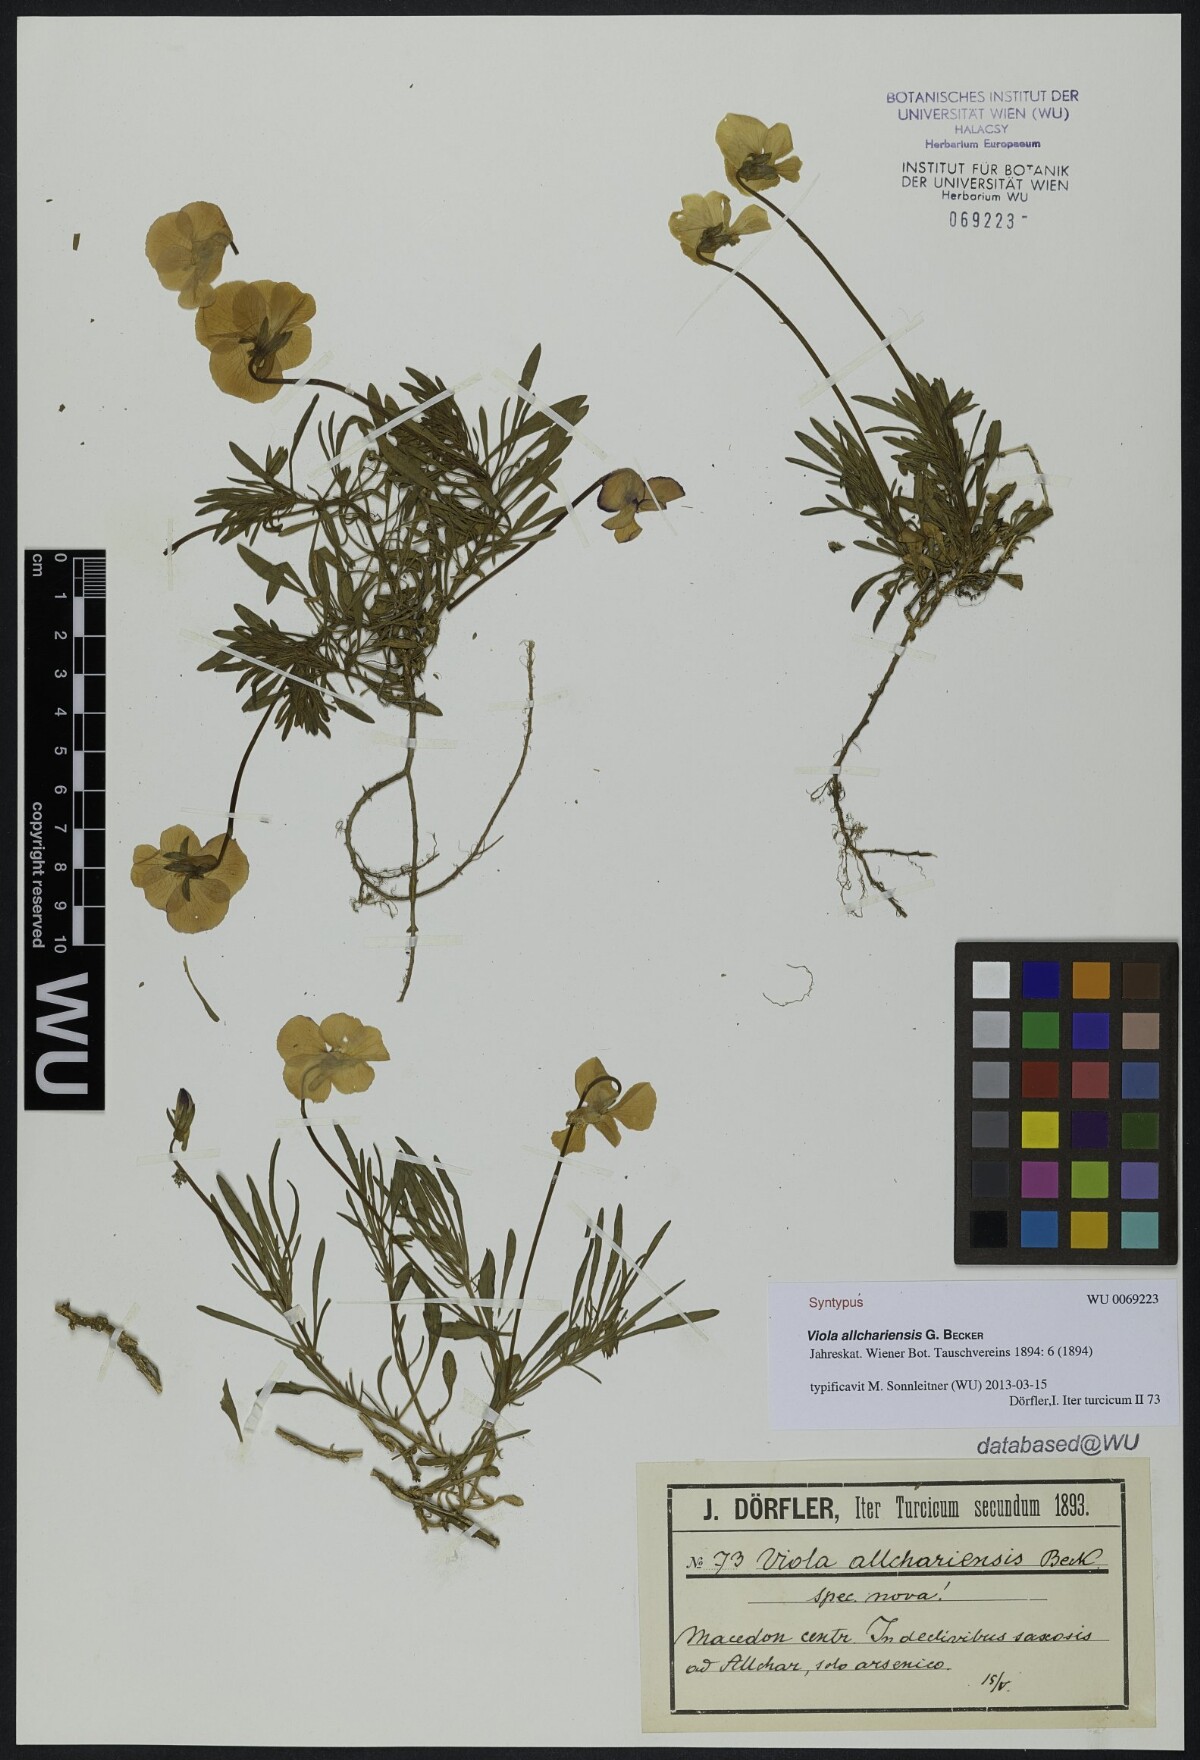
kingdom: Plantae
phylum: Tracheophyta
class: Magnoliopsida
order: Malpighiales
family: Violaceae
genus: Viola
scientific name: Viola allchariensis
